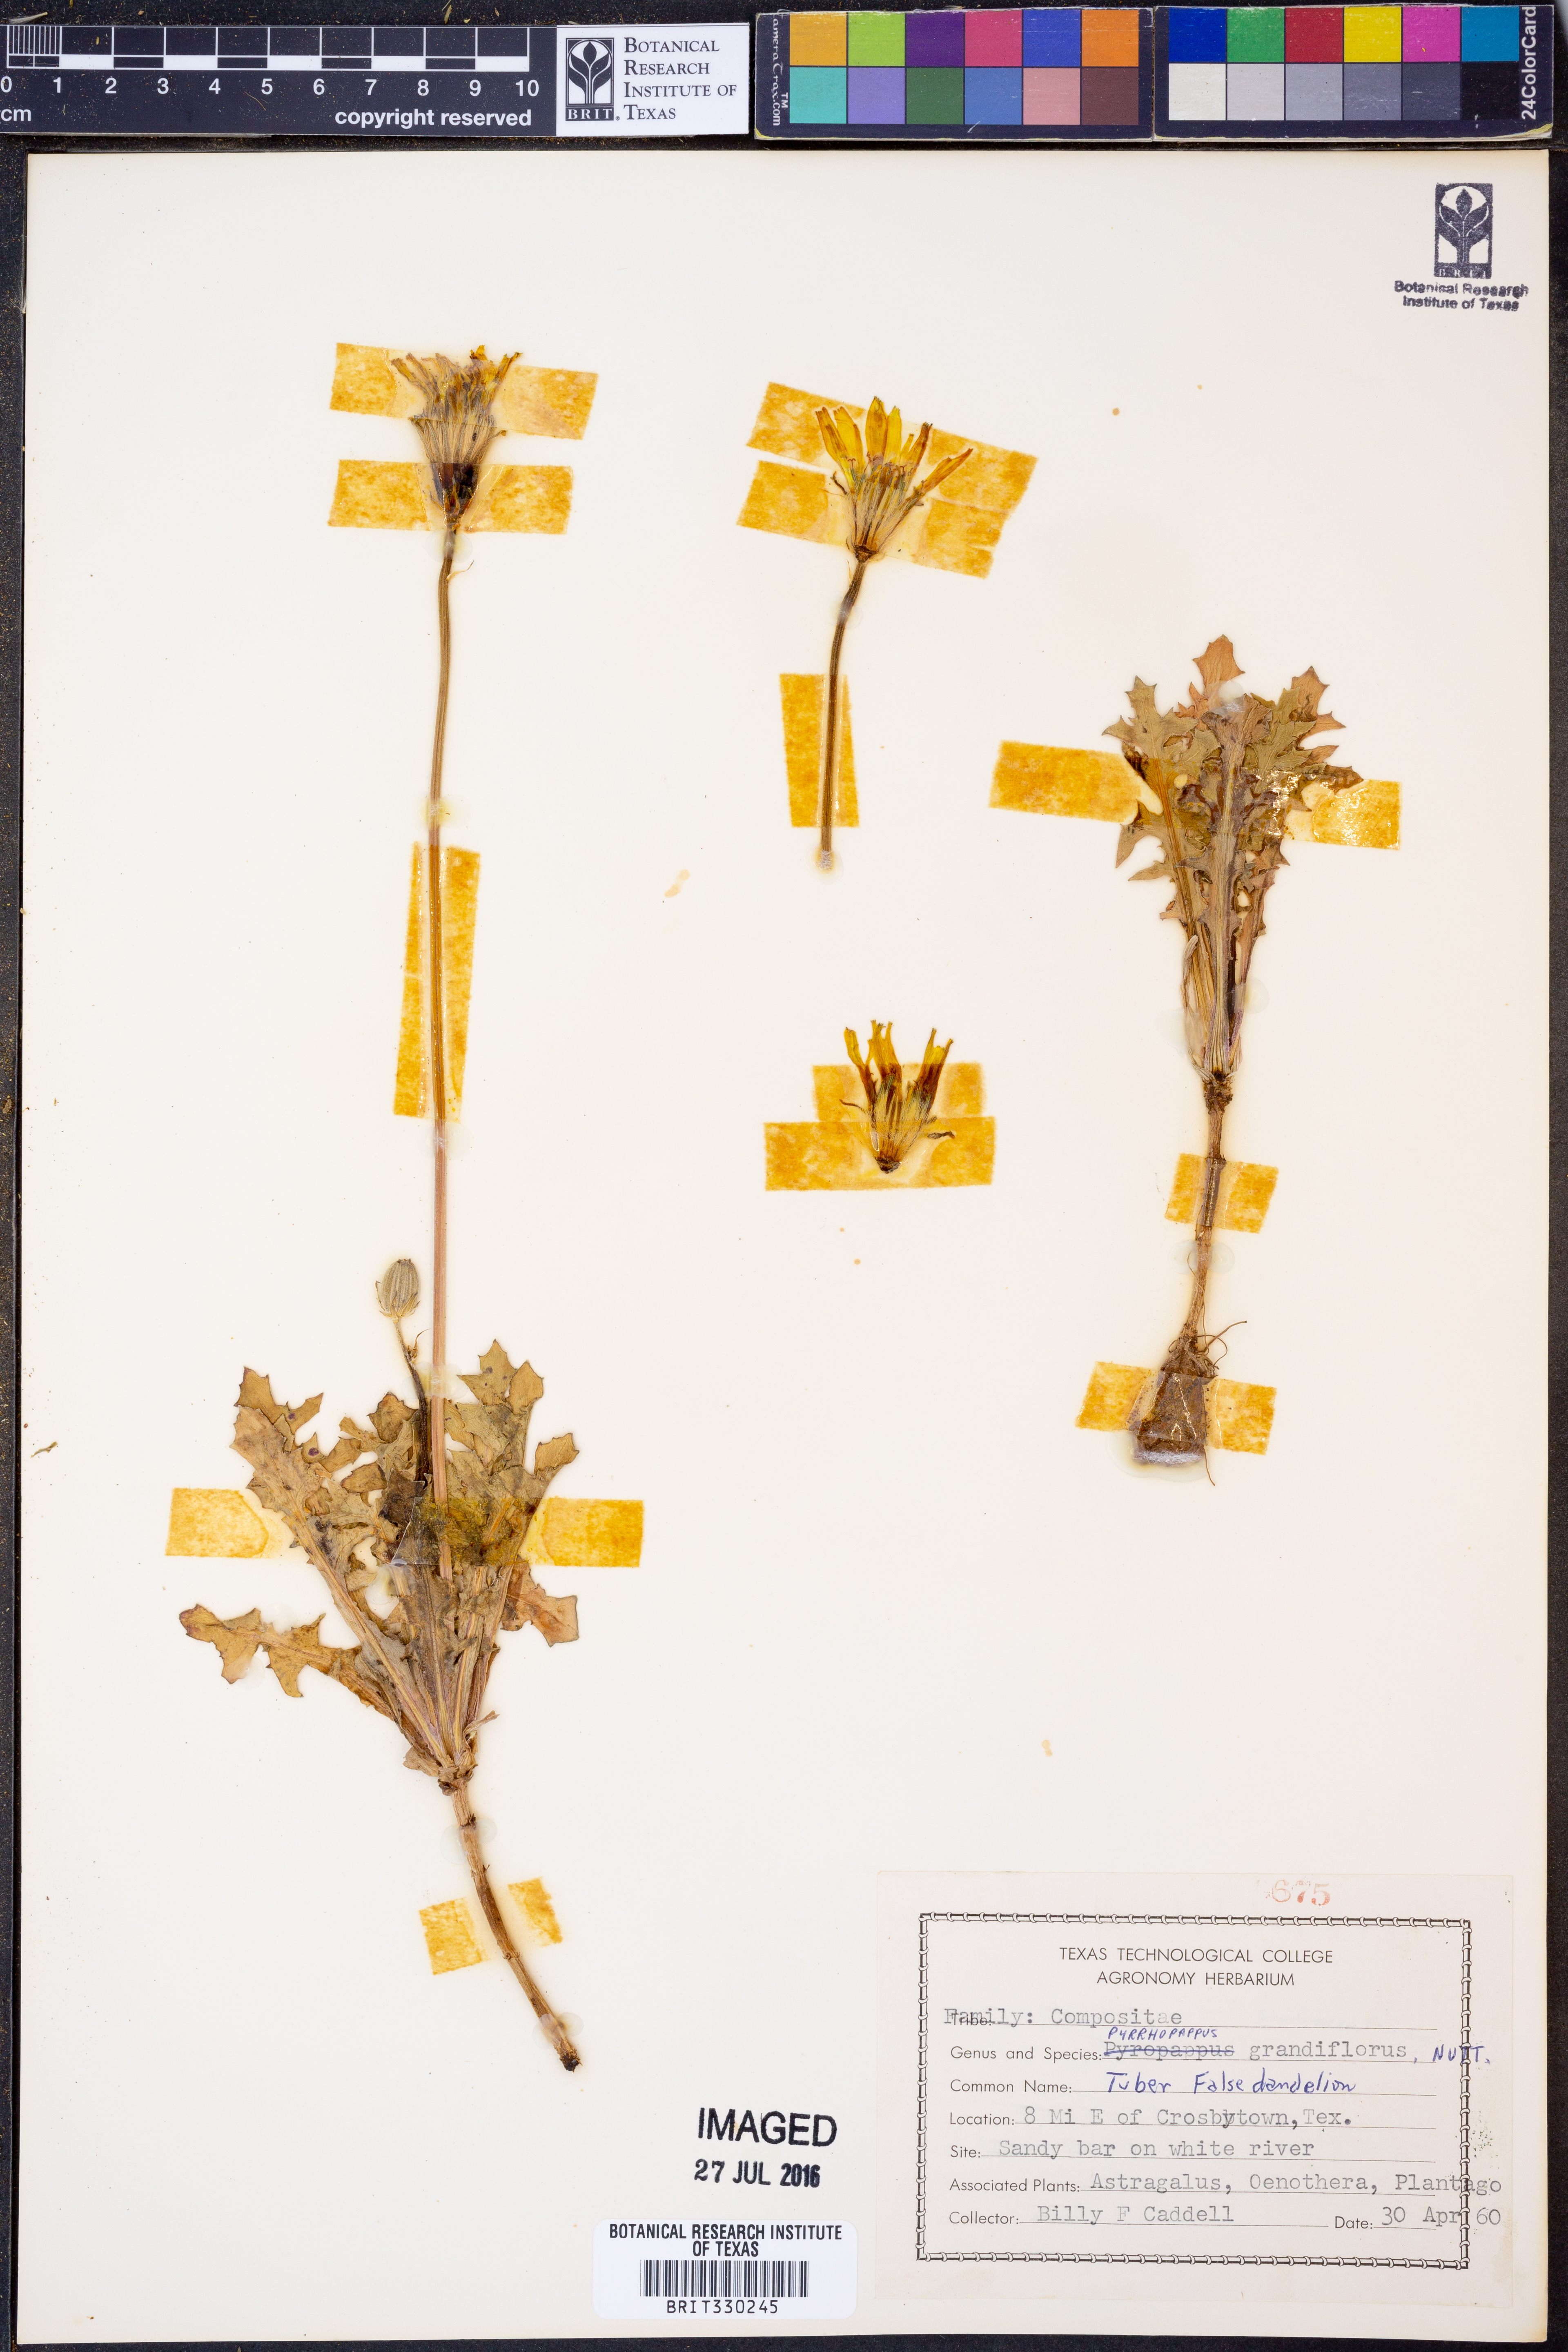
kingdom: Plantae
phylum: Tracheophyta
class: Magnoliopsida
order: Asterales
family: Asteraceae
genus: Pyrrhopappus
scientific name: Pyrrhopappus grandiflorus
